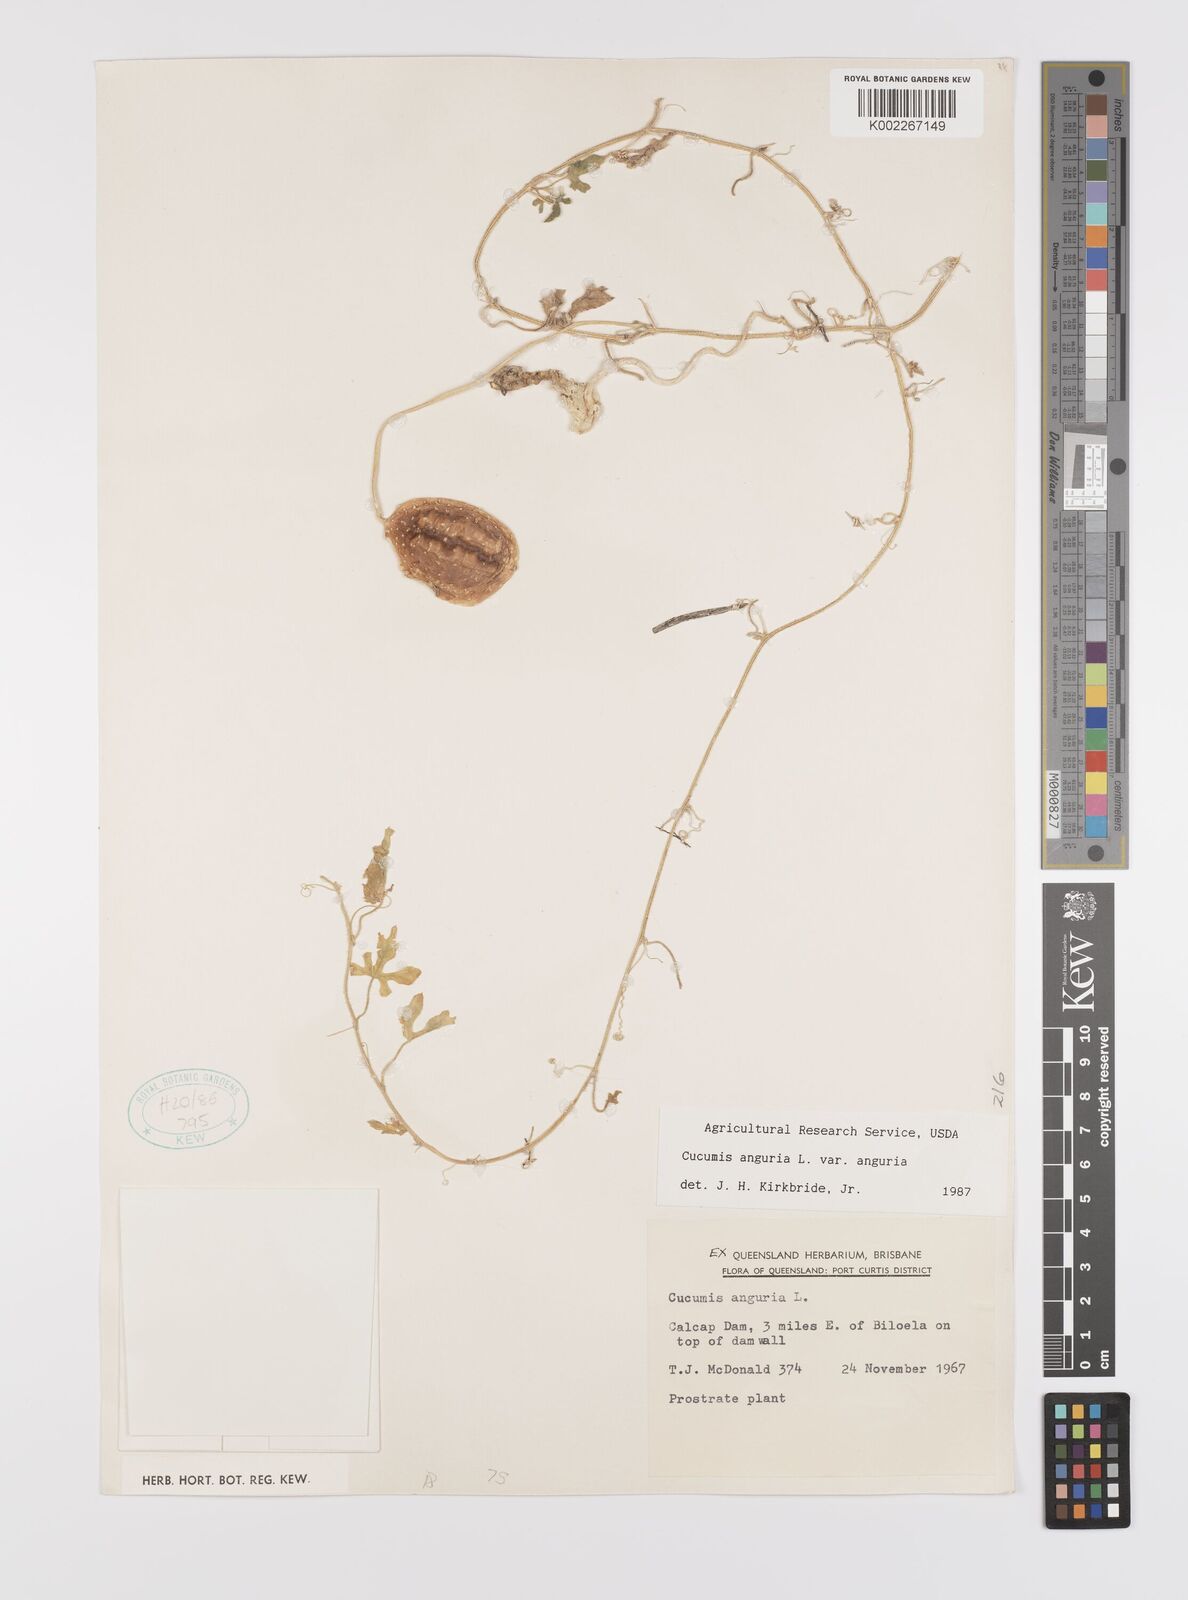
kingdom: Plantae
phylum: Tracheophyta
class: Magnoliopsida
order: Cucurbitales
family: Cucurbitaceae
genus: Cucumis
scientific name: Cucumis anguria
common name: West indian gherkin
